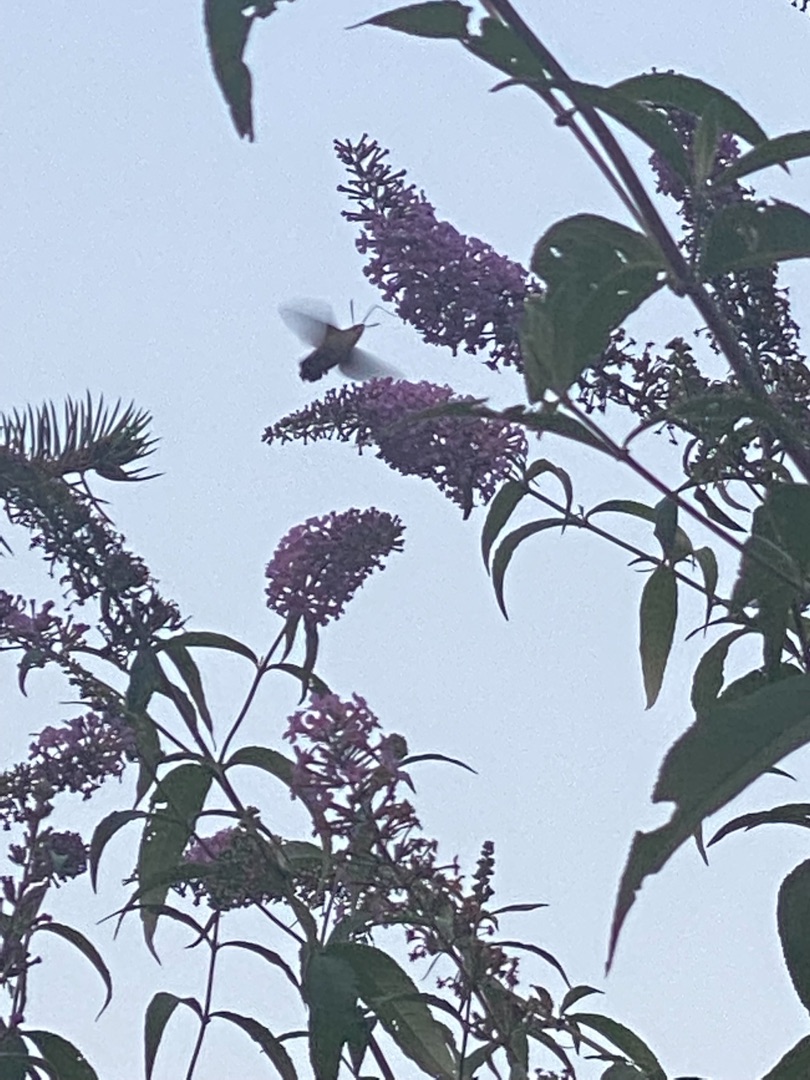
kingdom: Animalia
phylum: Arthropoda
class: Insecta
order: Lepidoptera
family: Sphingidae
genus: Macroglossum
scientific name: Macroglossum stellatarum
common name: Duehale
